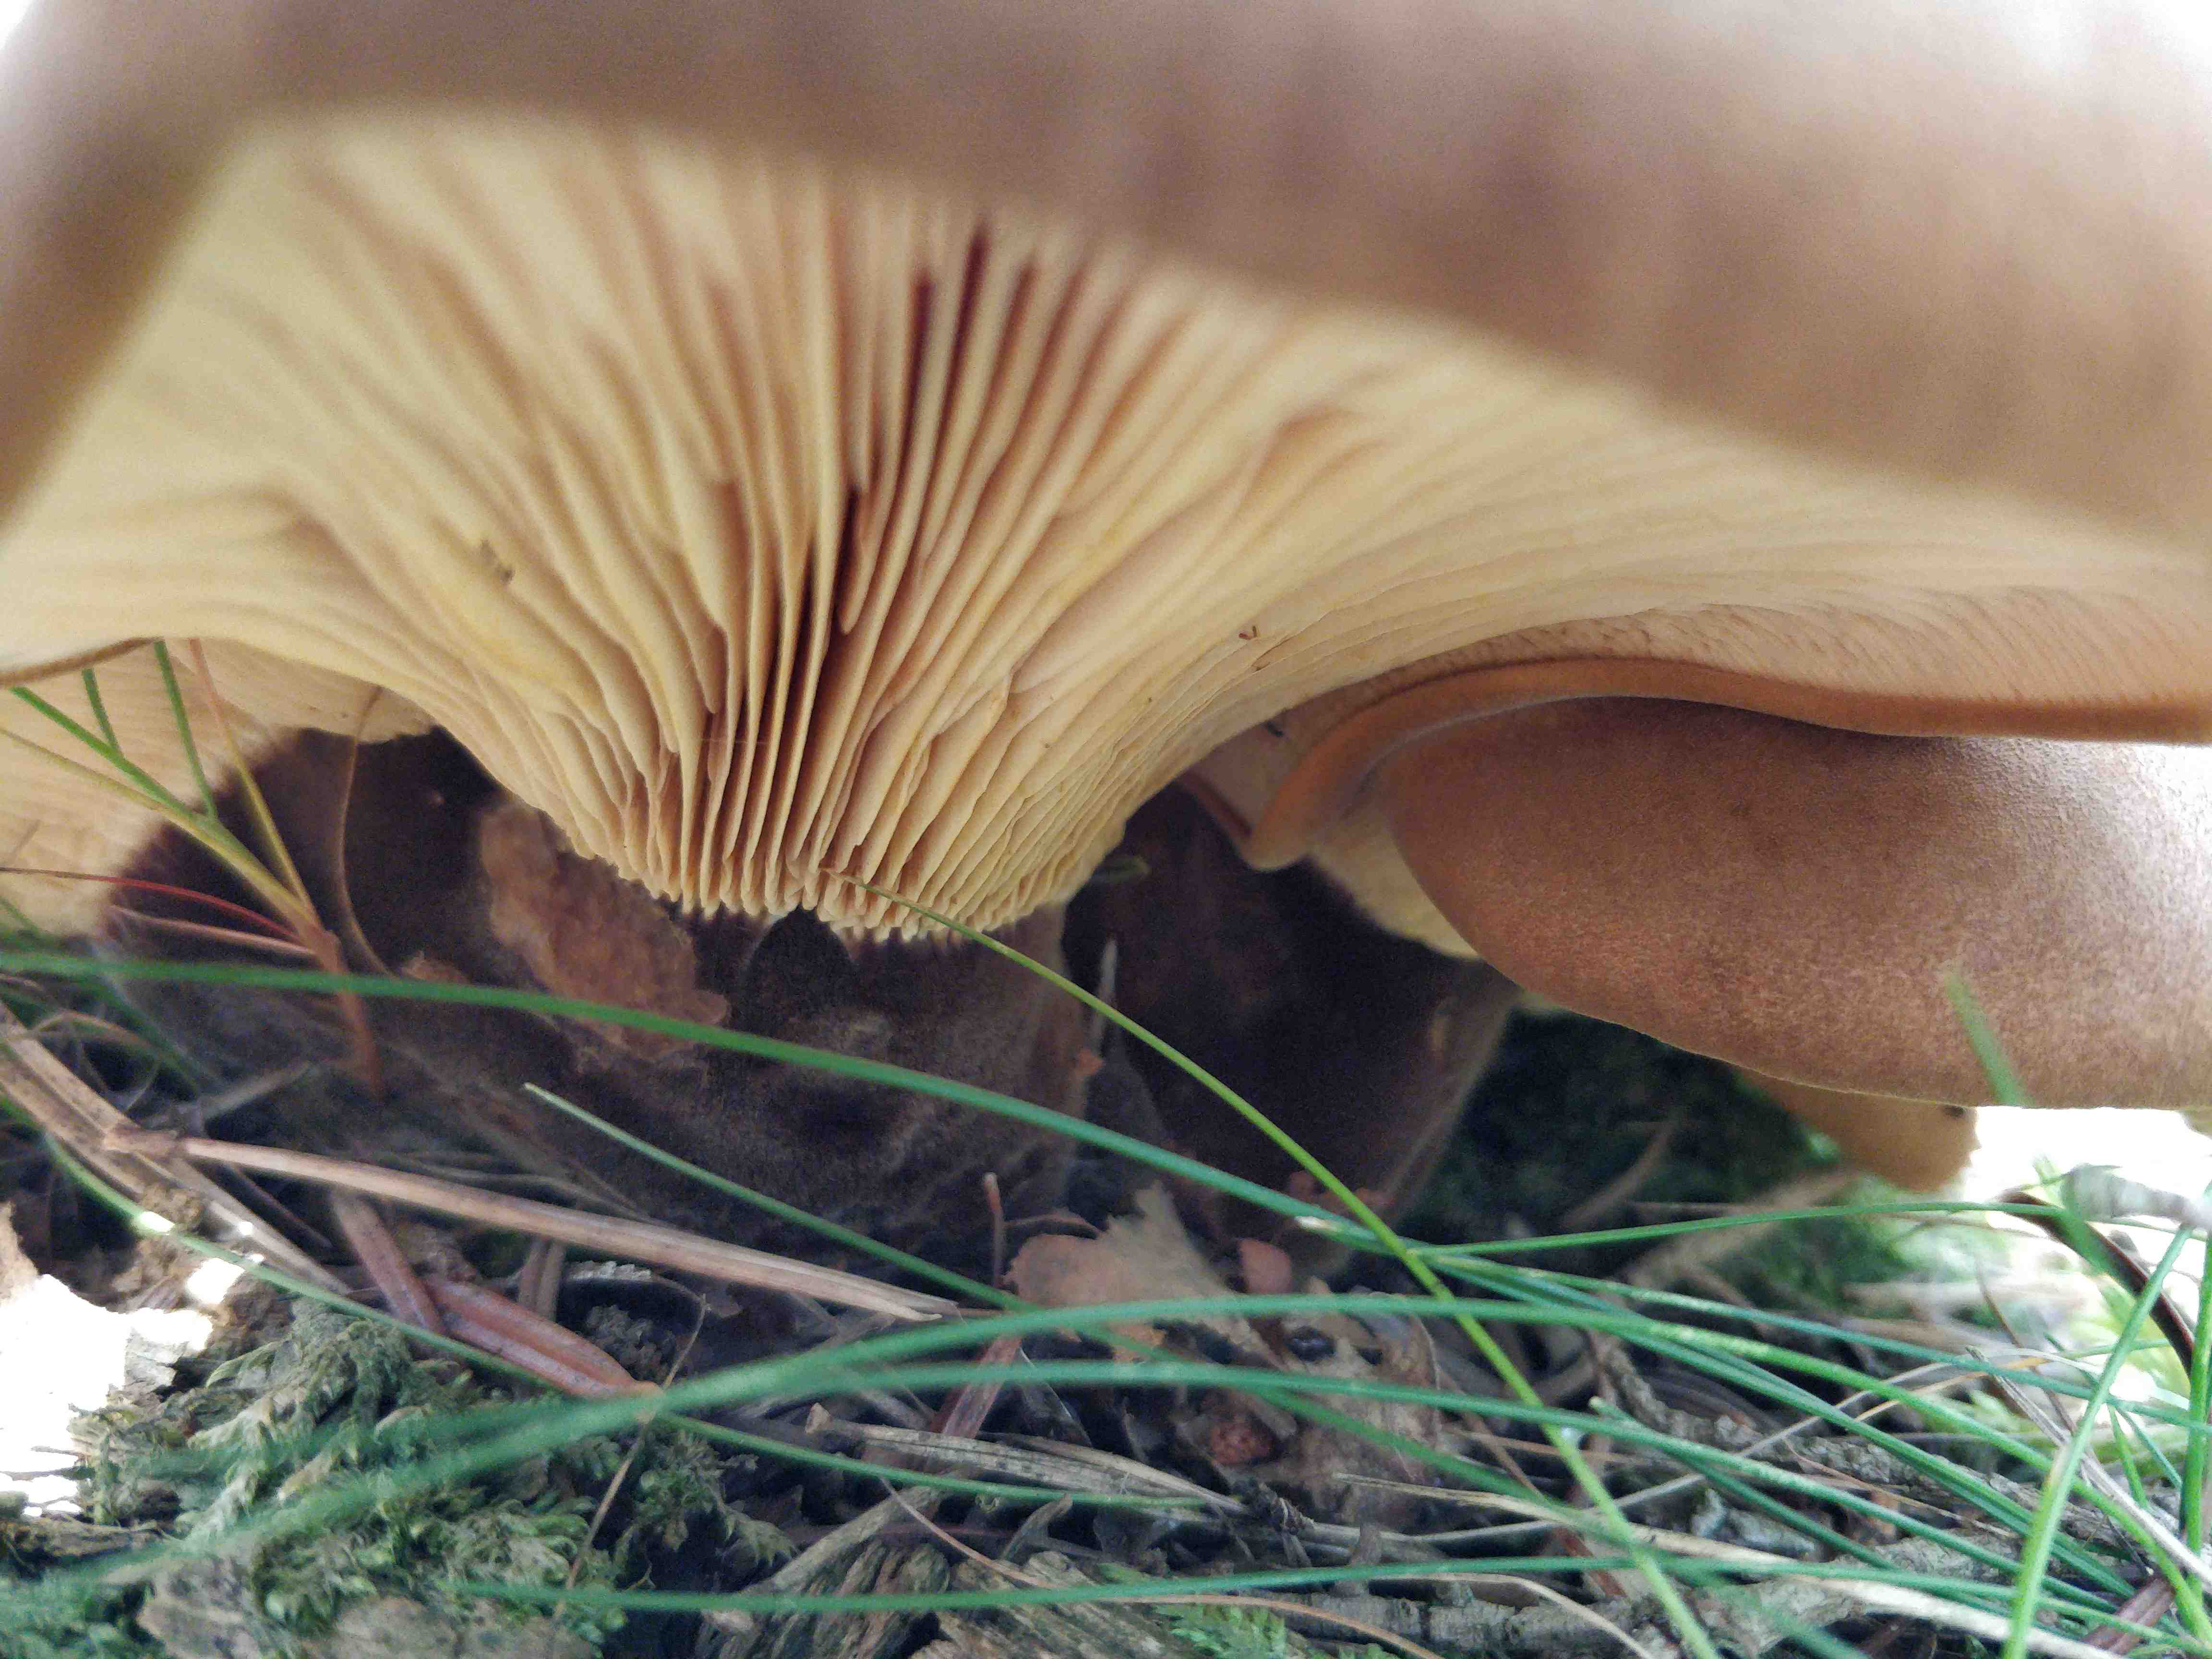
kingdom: Fungi
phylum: Basidiomycota
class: Agaricomycetes
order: Boletales
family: Tapinellaceae
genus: Tapinella
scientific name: Tapinella atrotomentosa
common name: sortfiltet viftesvamp
